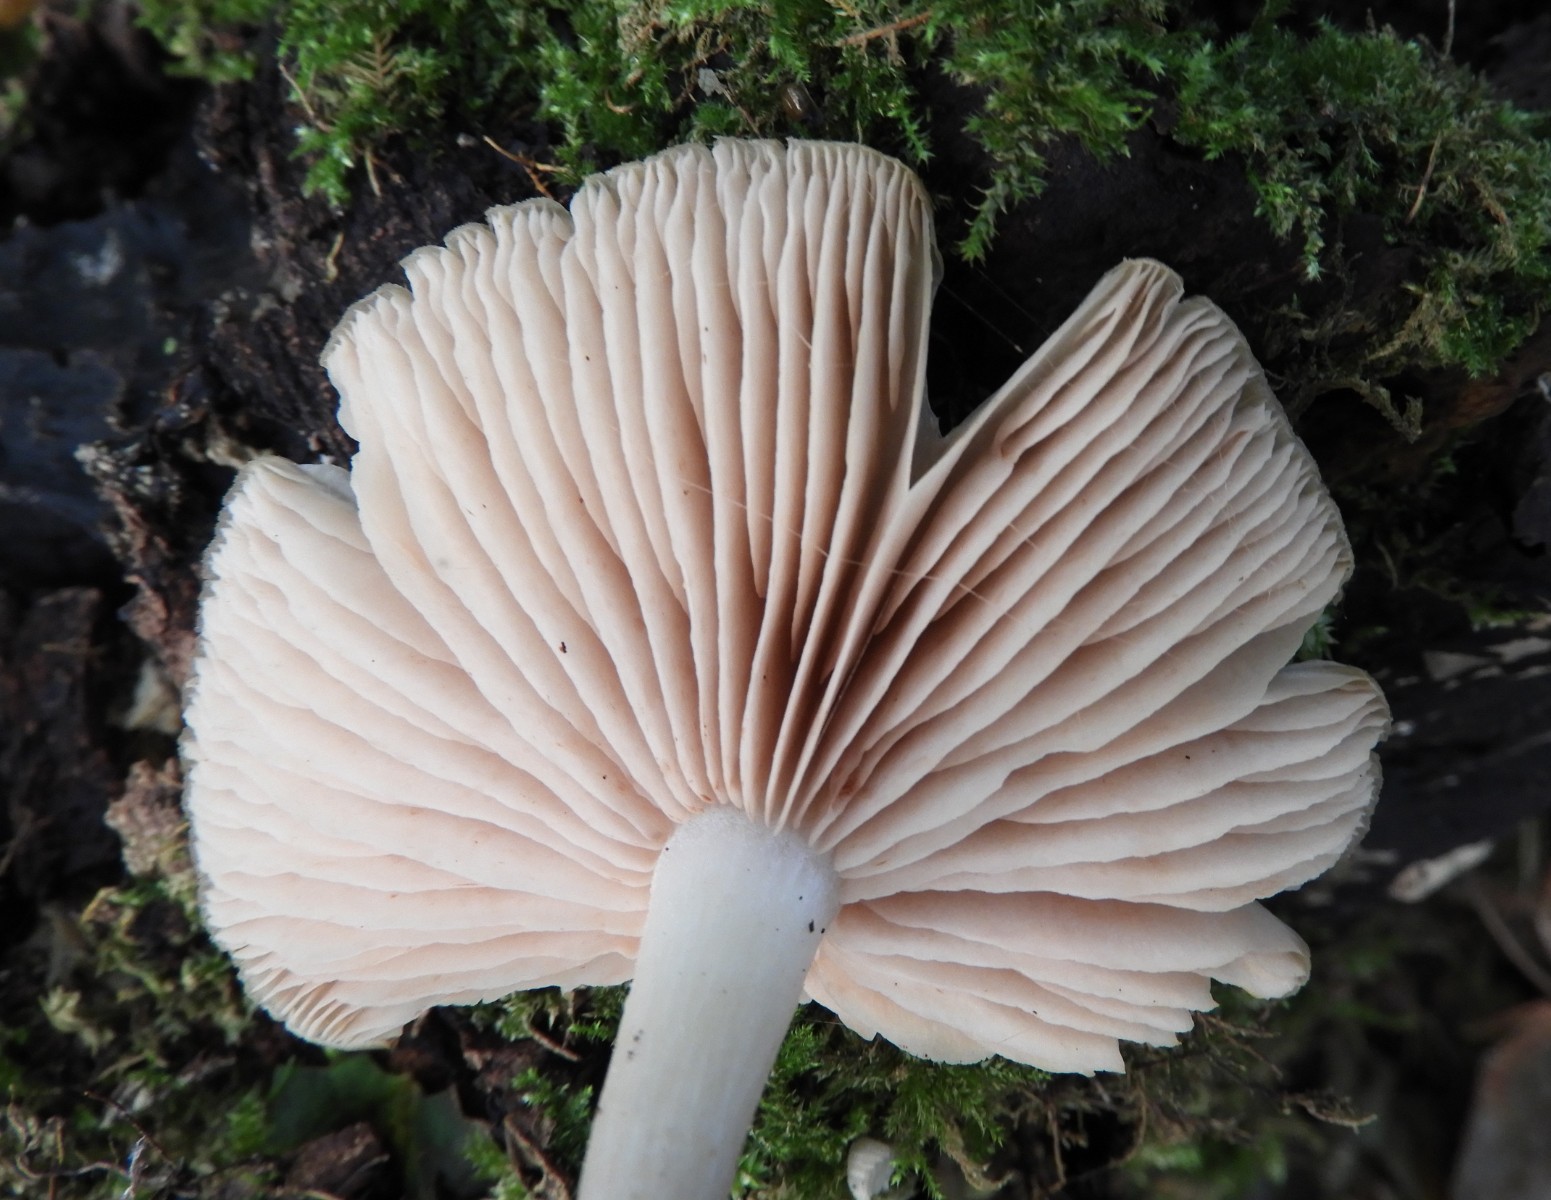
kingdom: Fungi
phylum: Basidiomycota
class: Agaricomycetes
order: Agaricales
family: Entolomataceae
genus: Entoloma
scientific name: Entoloma rhodopolium
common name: skov-rødblad
